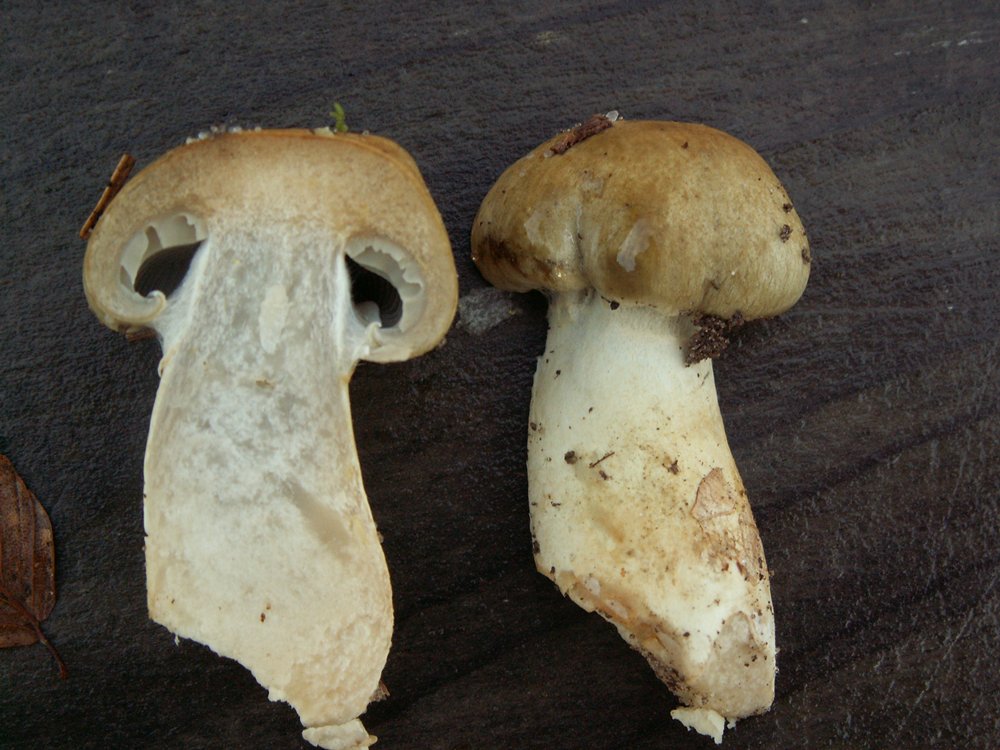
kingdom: Fungi
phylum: Basidiomycota
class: Agaricomycetes
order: Agaricales
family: Cortinariaceae
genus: Cortinarius
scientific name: Cortinarius subtortus
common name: olivengul slørhat
